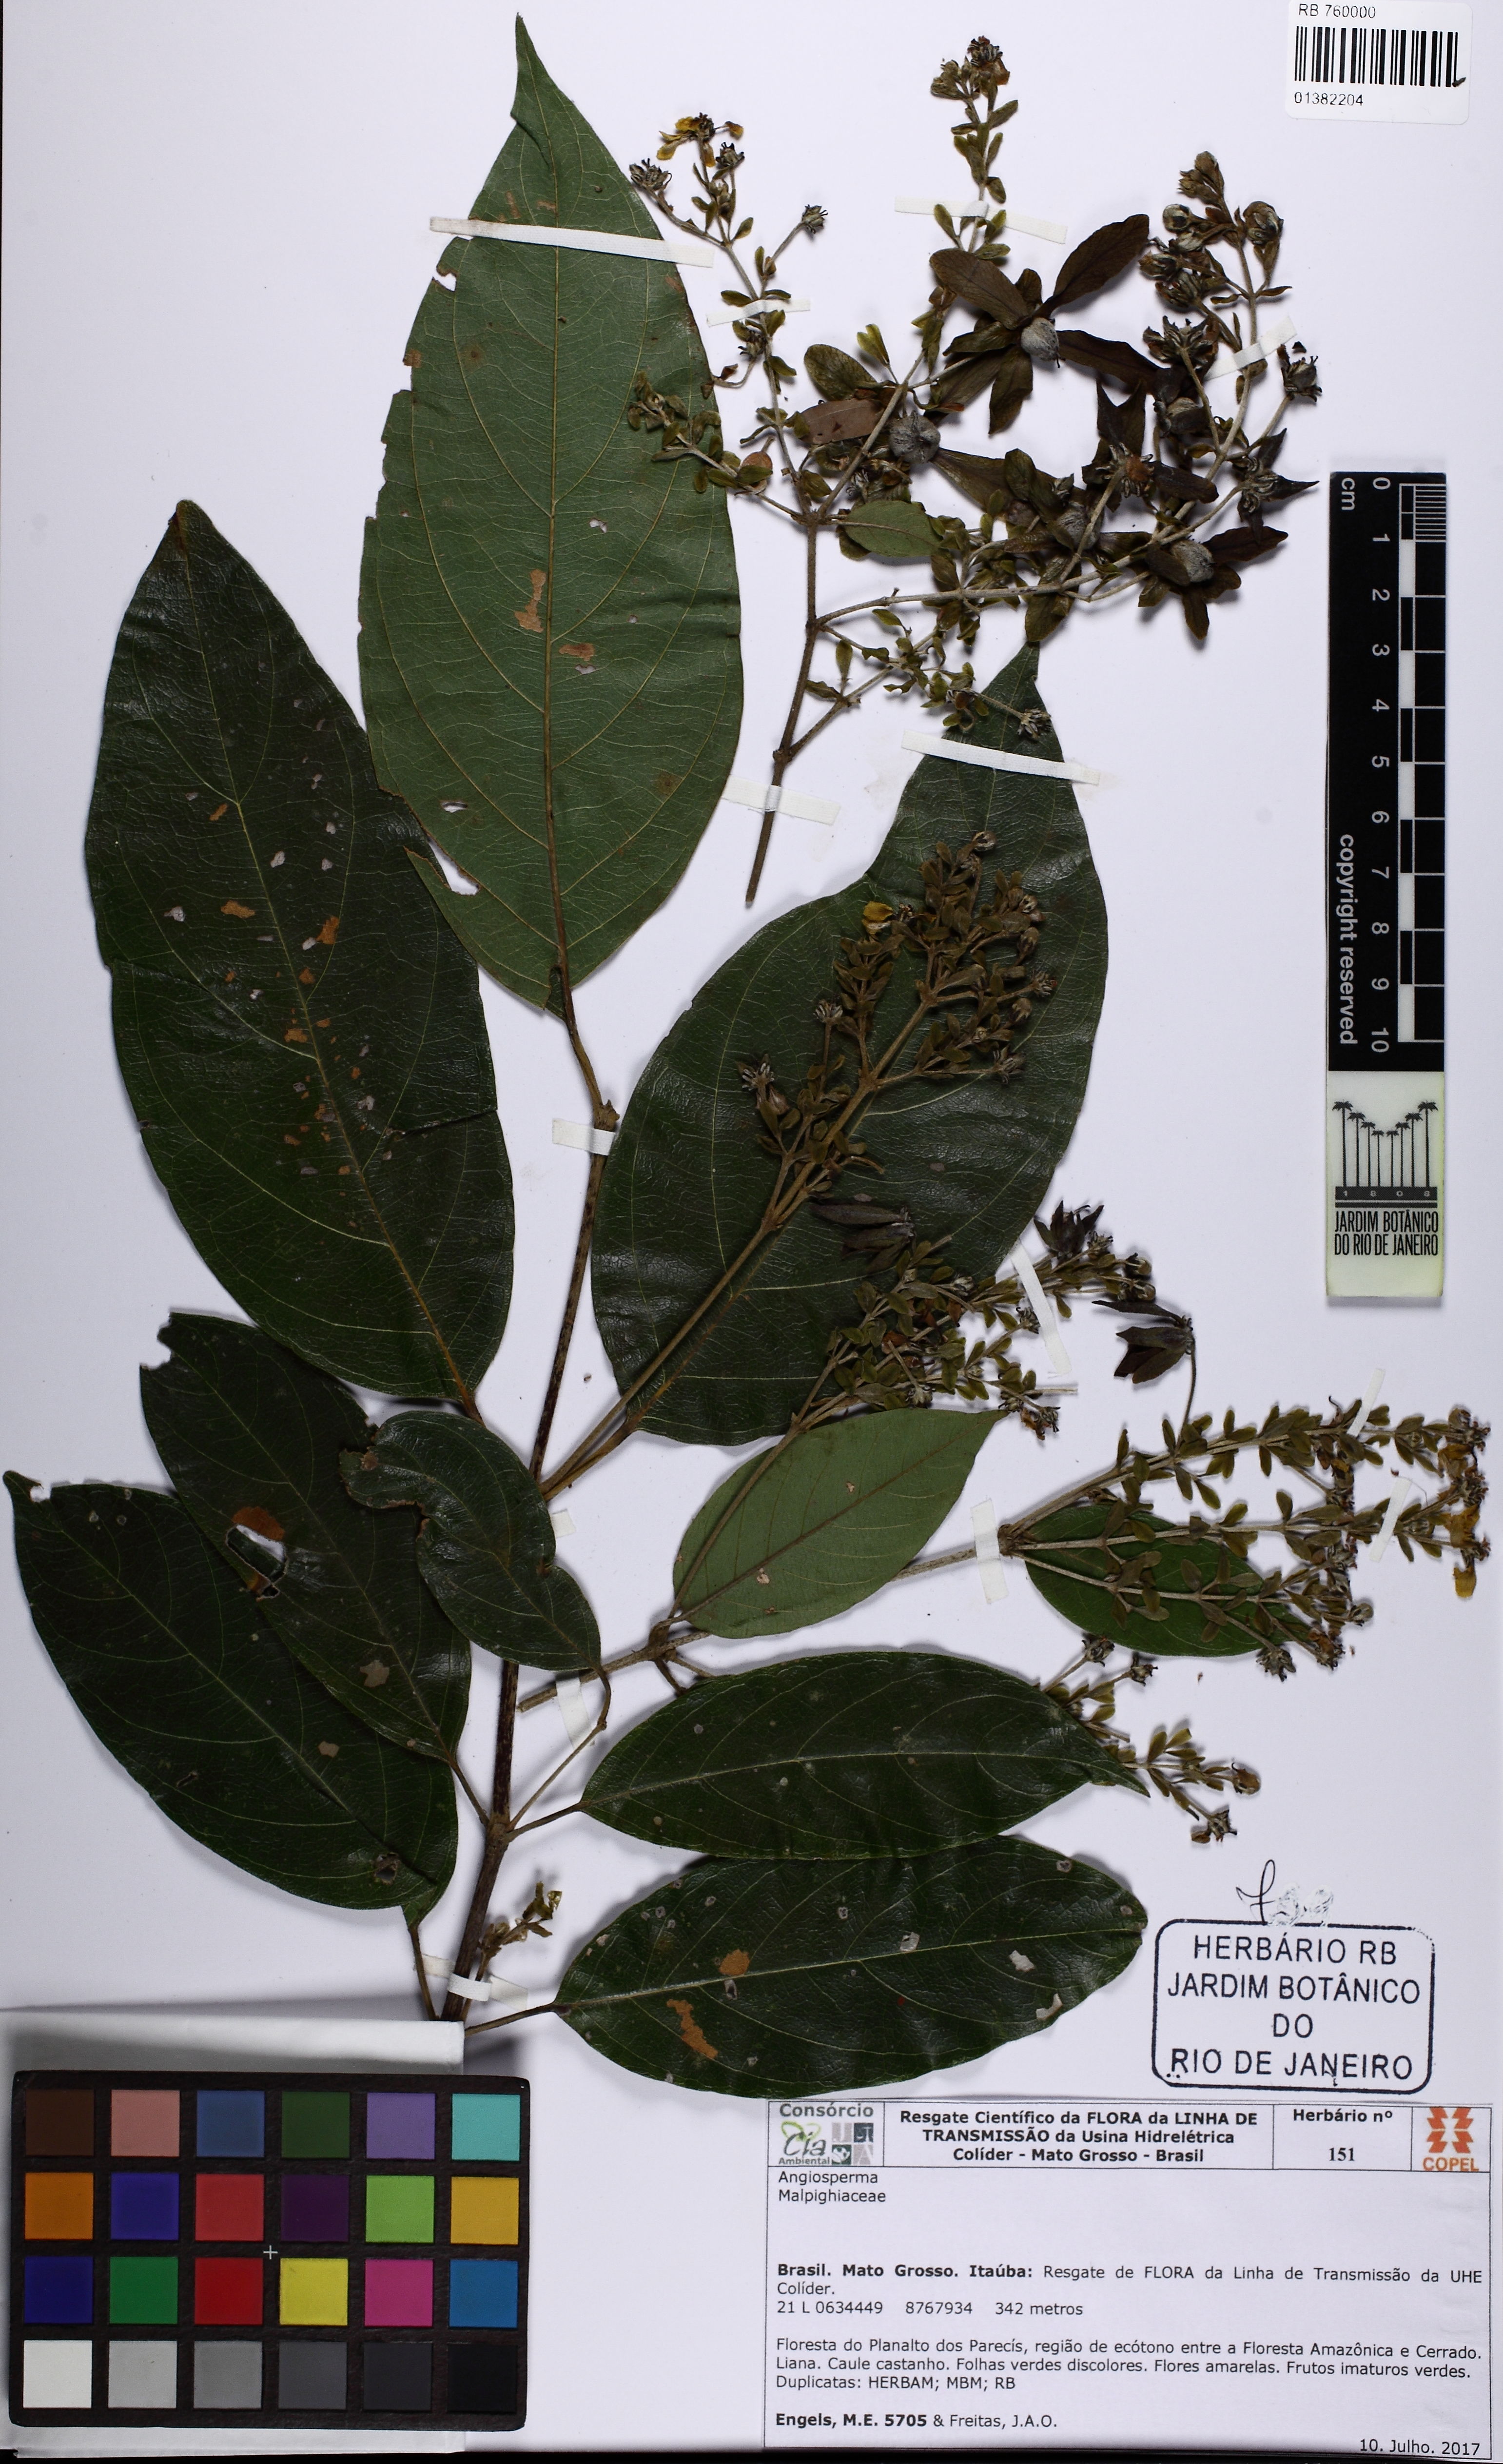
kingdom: Plantae
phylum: Tracheophyta
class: Magnoliopsida
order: Malpighiales
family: Malpighiaceae
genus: Dicella
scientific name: Dicella
